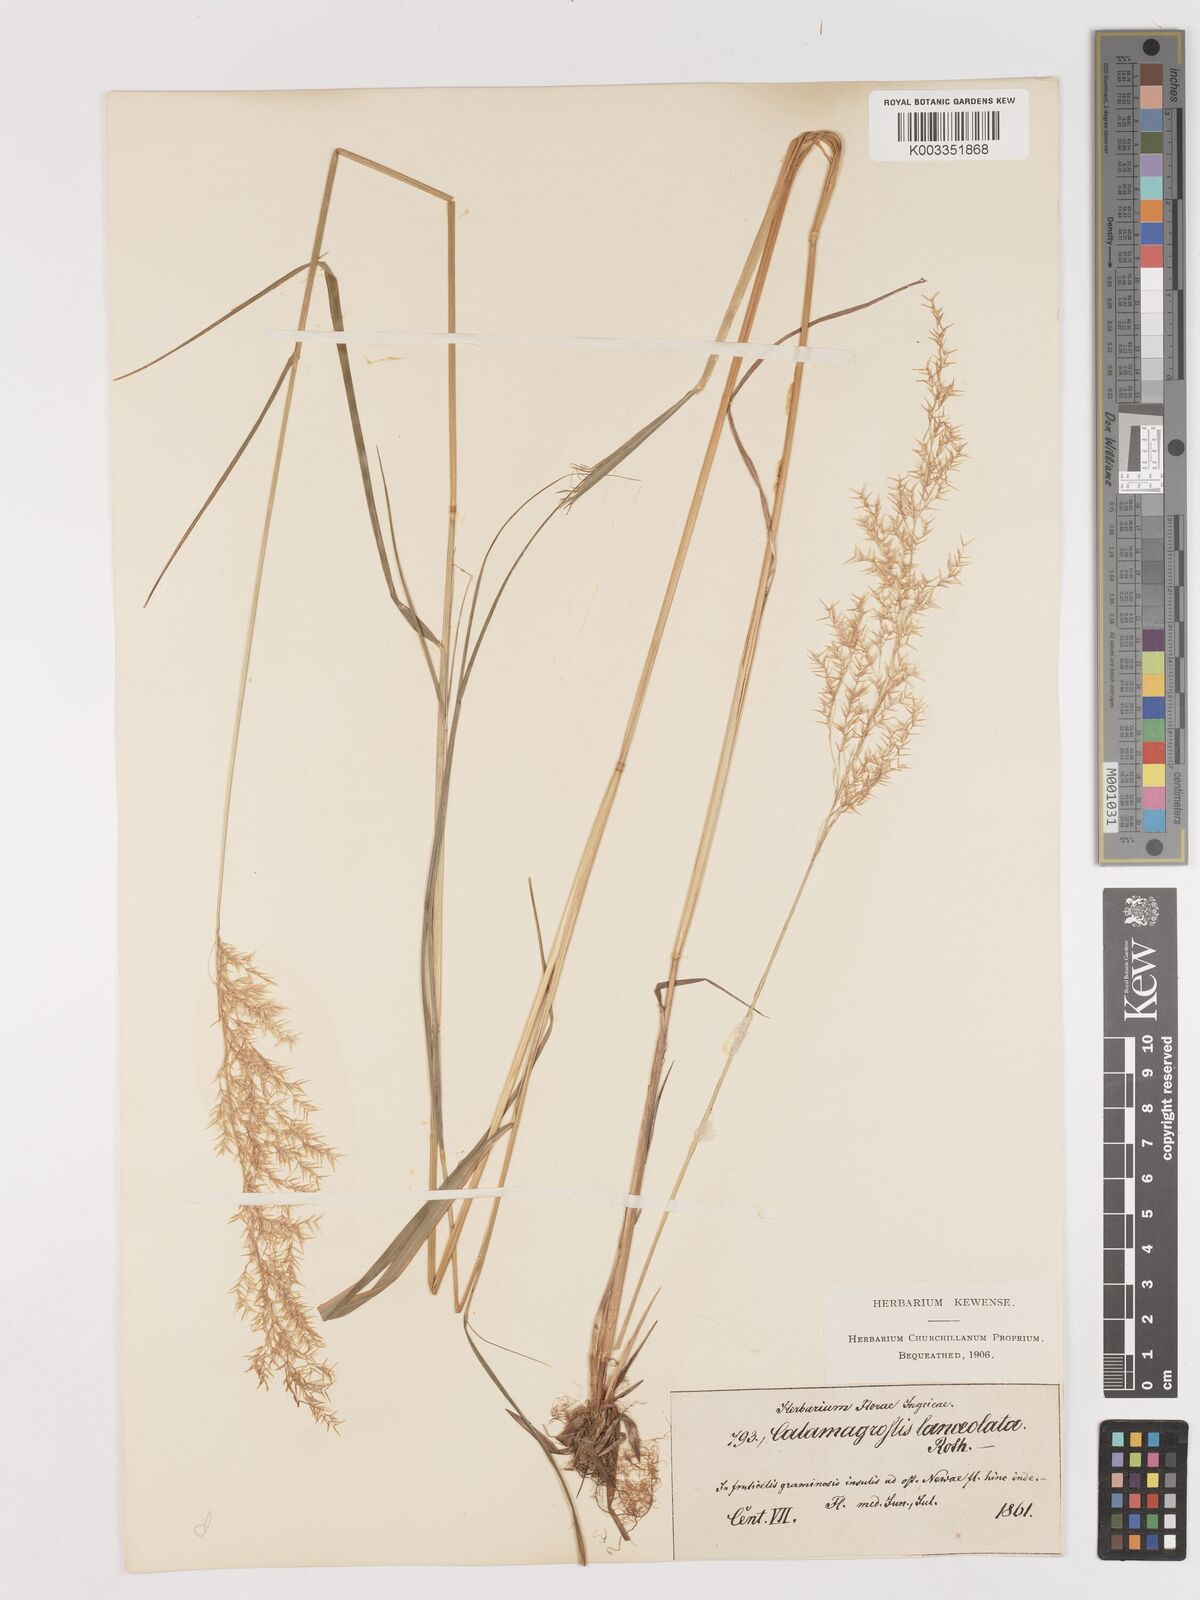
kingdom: Plantae
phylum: Tracheophyta
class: Liliopsida
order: Poales
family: Poaceae
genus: Calamagrostis
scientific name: Calamagrostis canescens
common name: Purple small-reed
